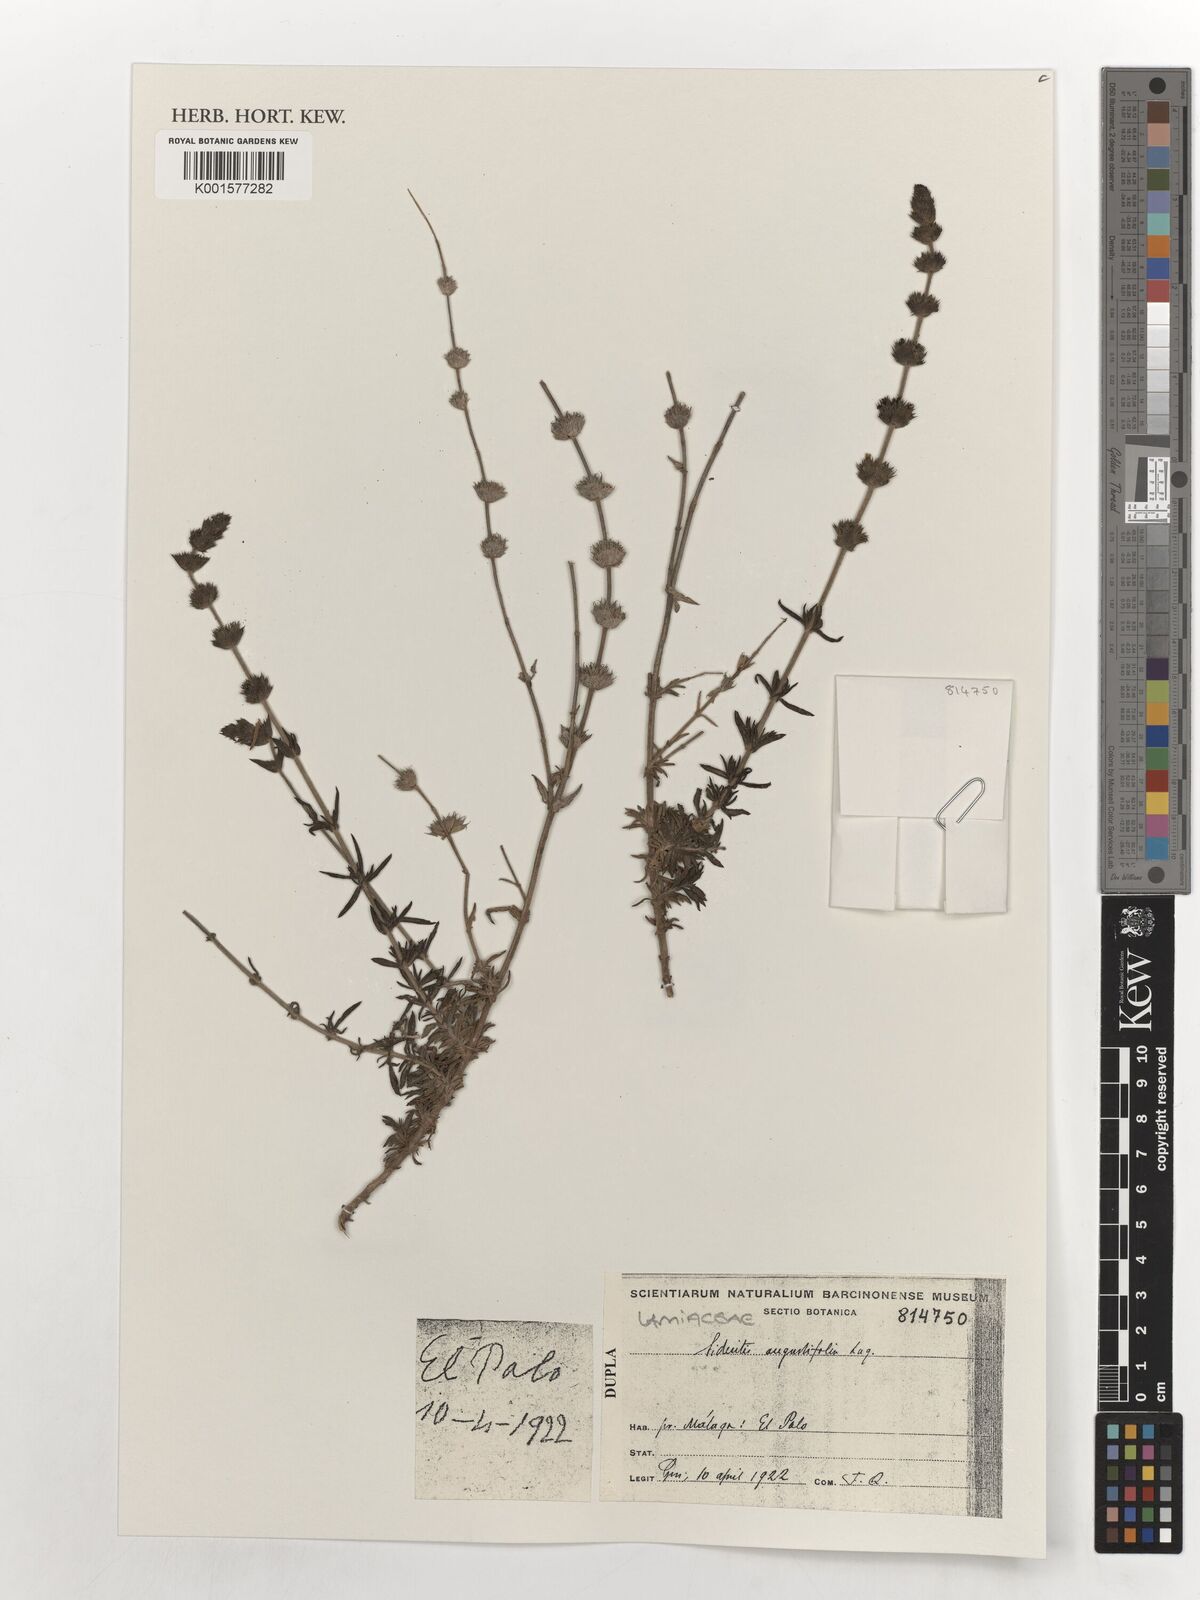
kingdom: Plantae
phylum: Tracheophyta
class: Magnoliopsida
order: Lamiales
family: Lamiaceae
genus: Sideritis
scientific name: Sideritis
